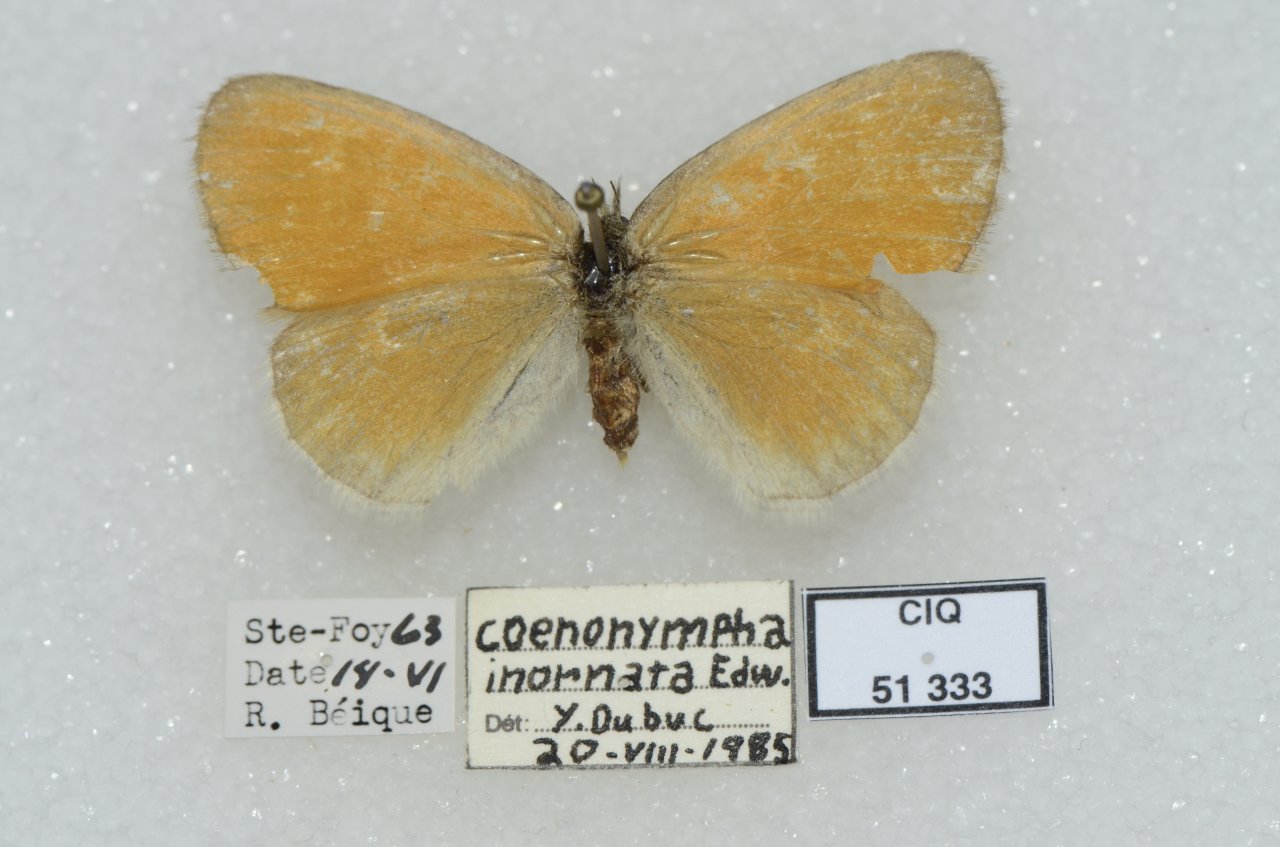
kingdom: Animalia
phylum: Arthropoda
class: Insecta
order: Lepidoptera
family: Nymphalidae
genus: Coenonympha
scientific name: Coenonympha tullia
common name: Large Heath
